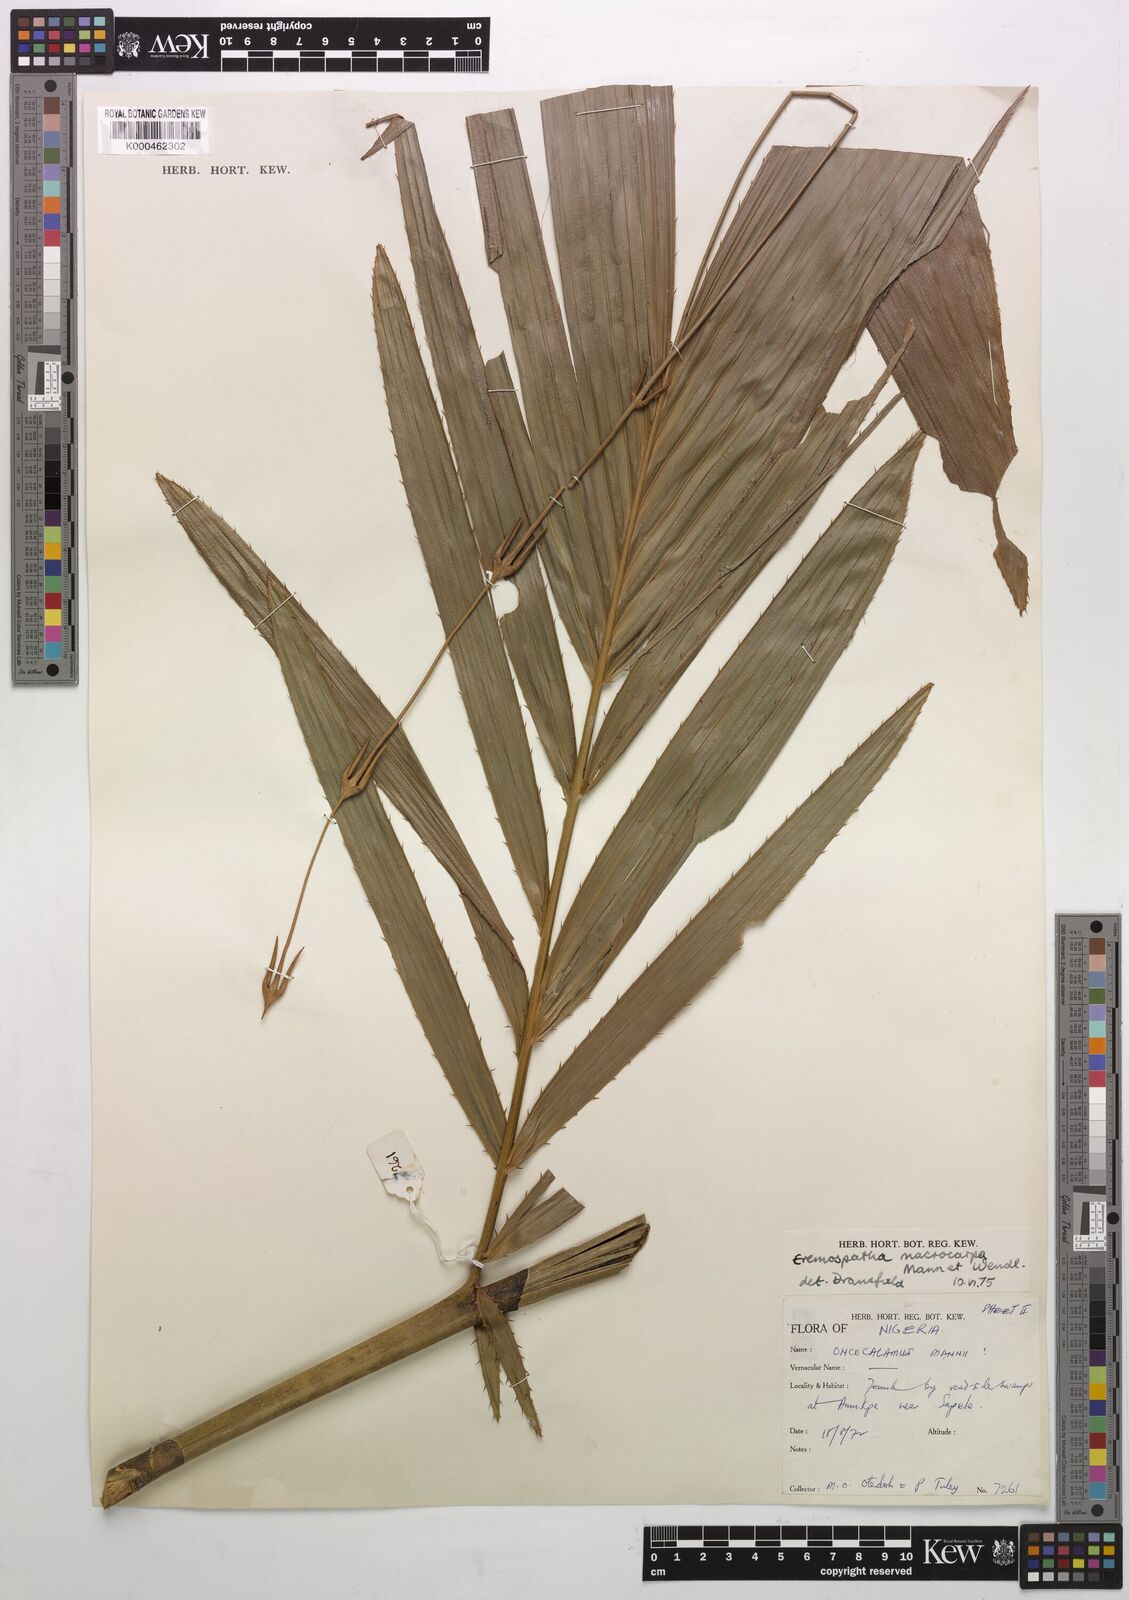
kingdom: Plantae
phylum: Tracheophyta
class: Liliopsida
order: Arecales
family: Arecaceae
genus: Eremospatha
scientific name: Eremospatha
